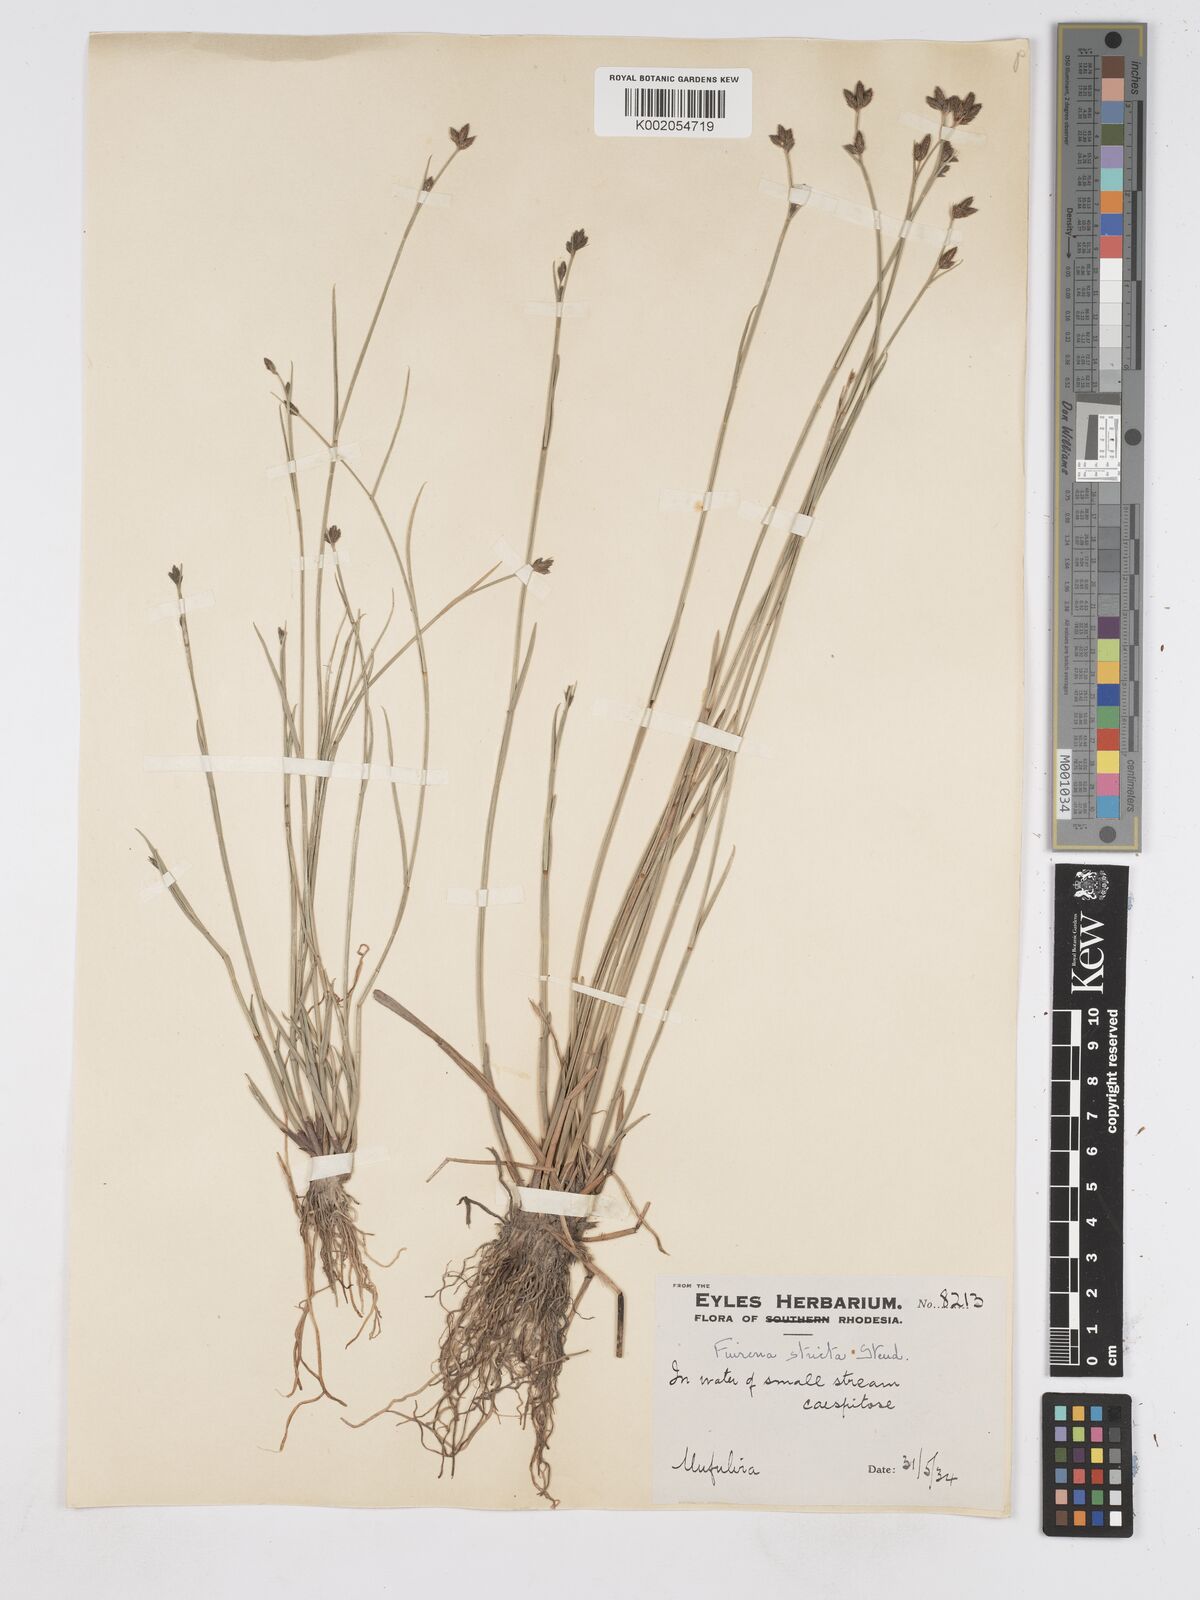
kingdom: Plantae
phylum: Tracheophyta
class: Liliopsida
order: Poales
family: Cyperaceae
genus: Fuirena
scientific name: Fuirena stricta
